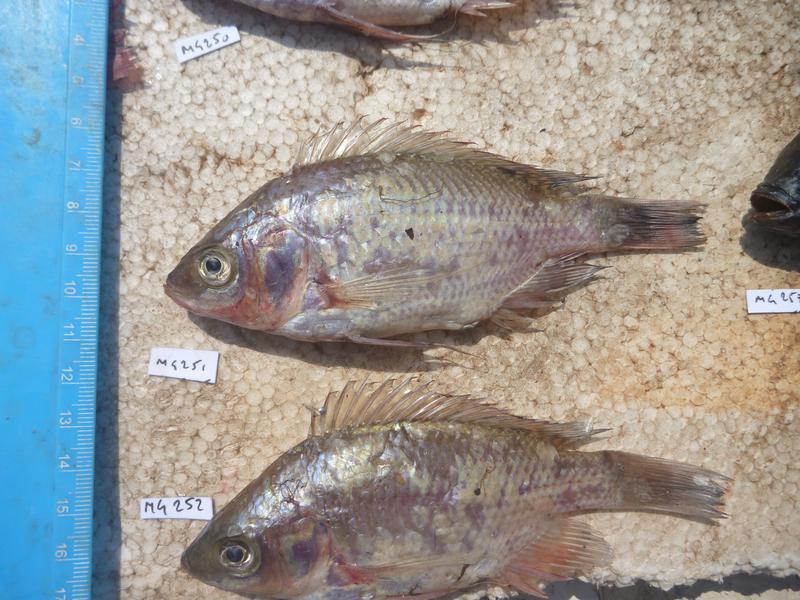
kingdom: Animalia
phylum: Chordata
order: Perciformes
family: Cichlidae
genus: Oreochromis
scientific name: Oreochromis esculentus
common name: Carp
